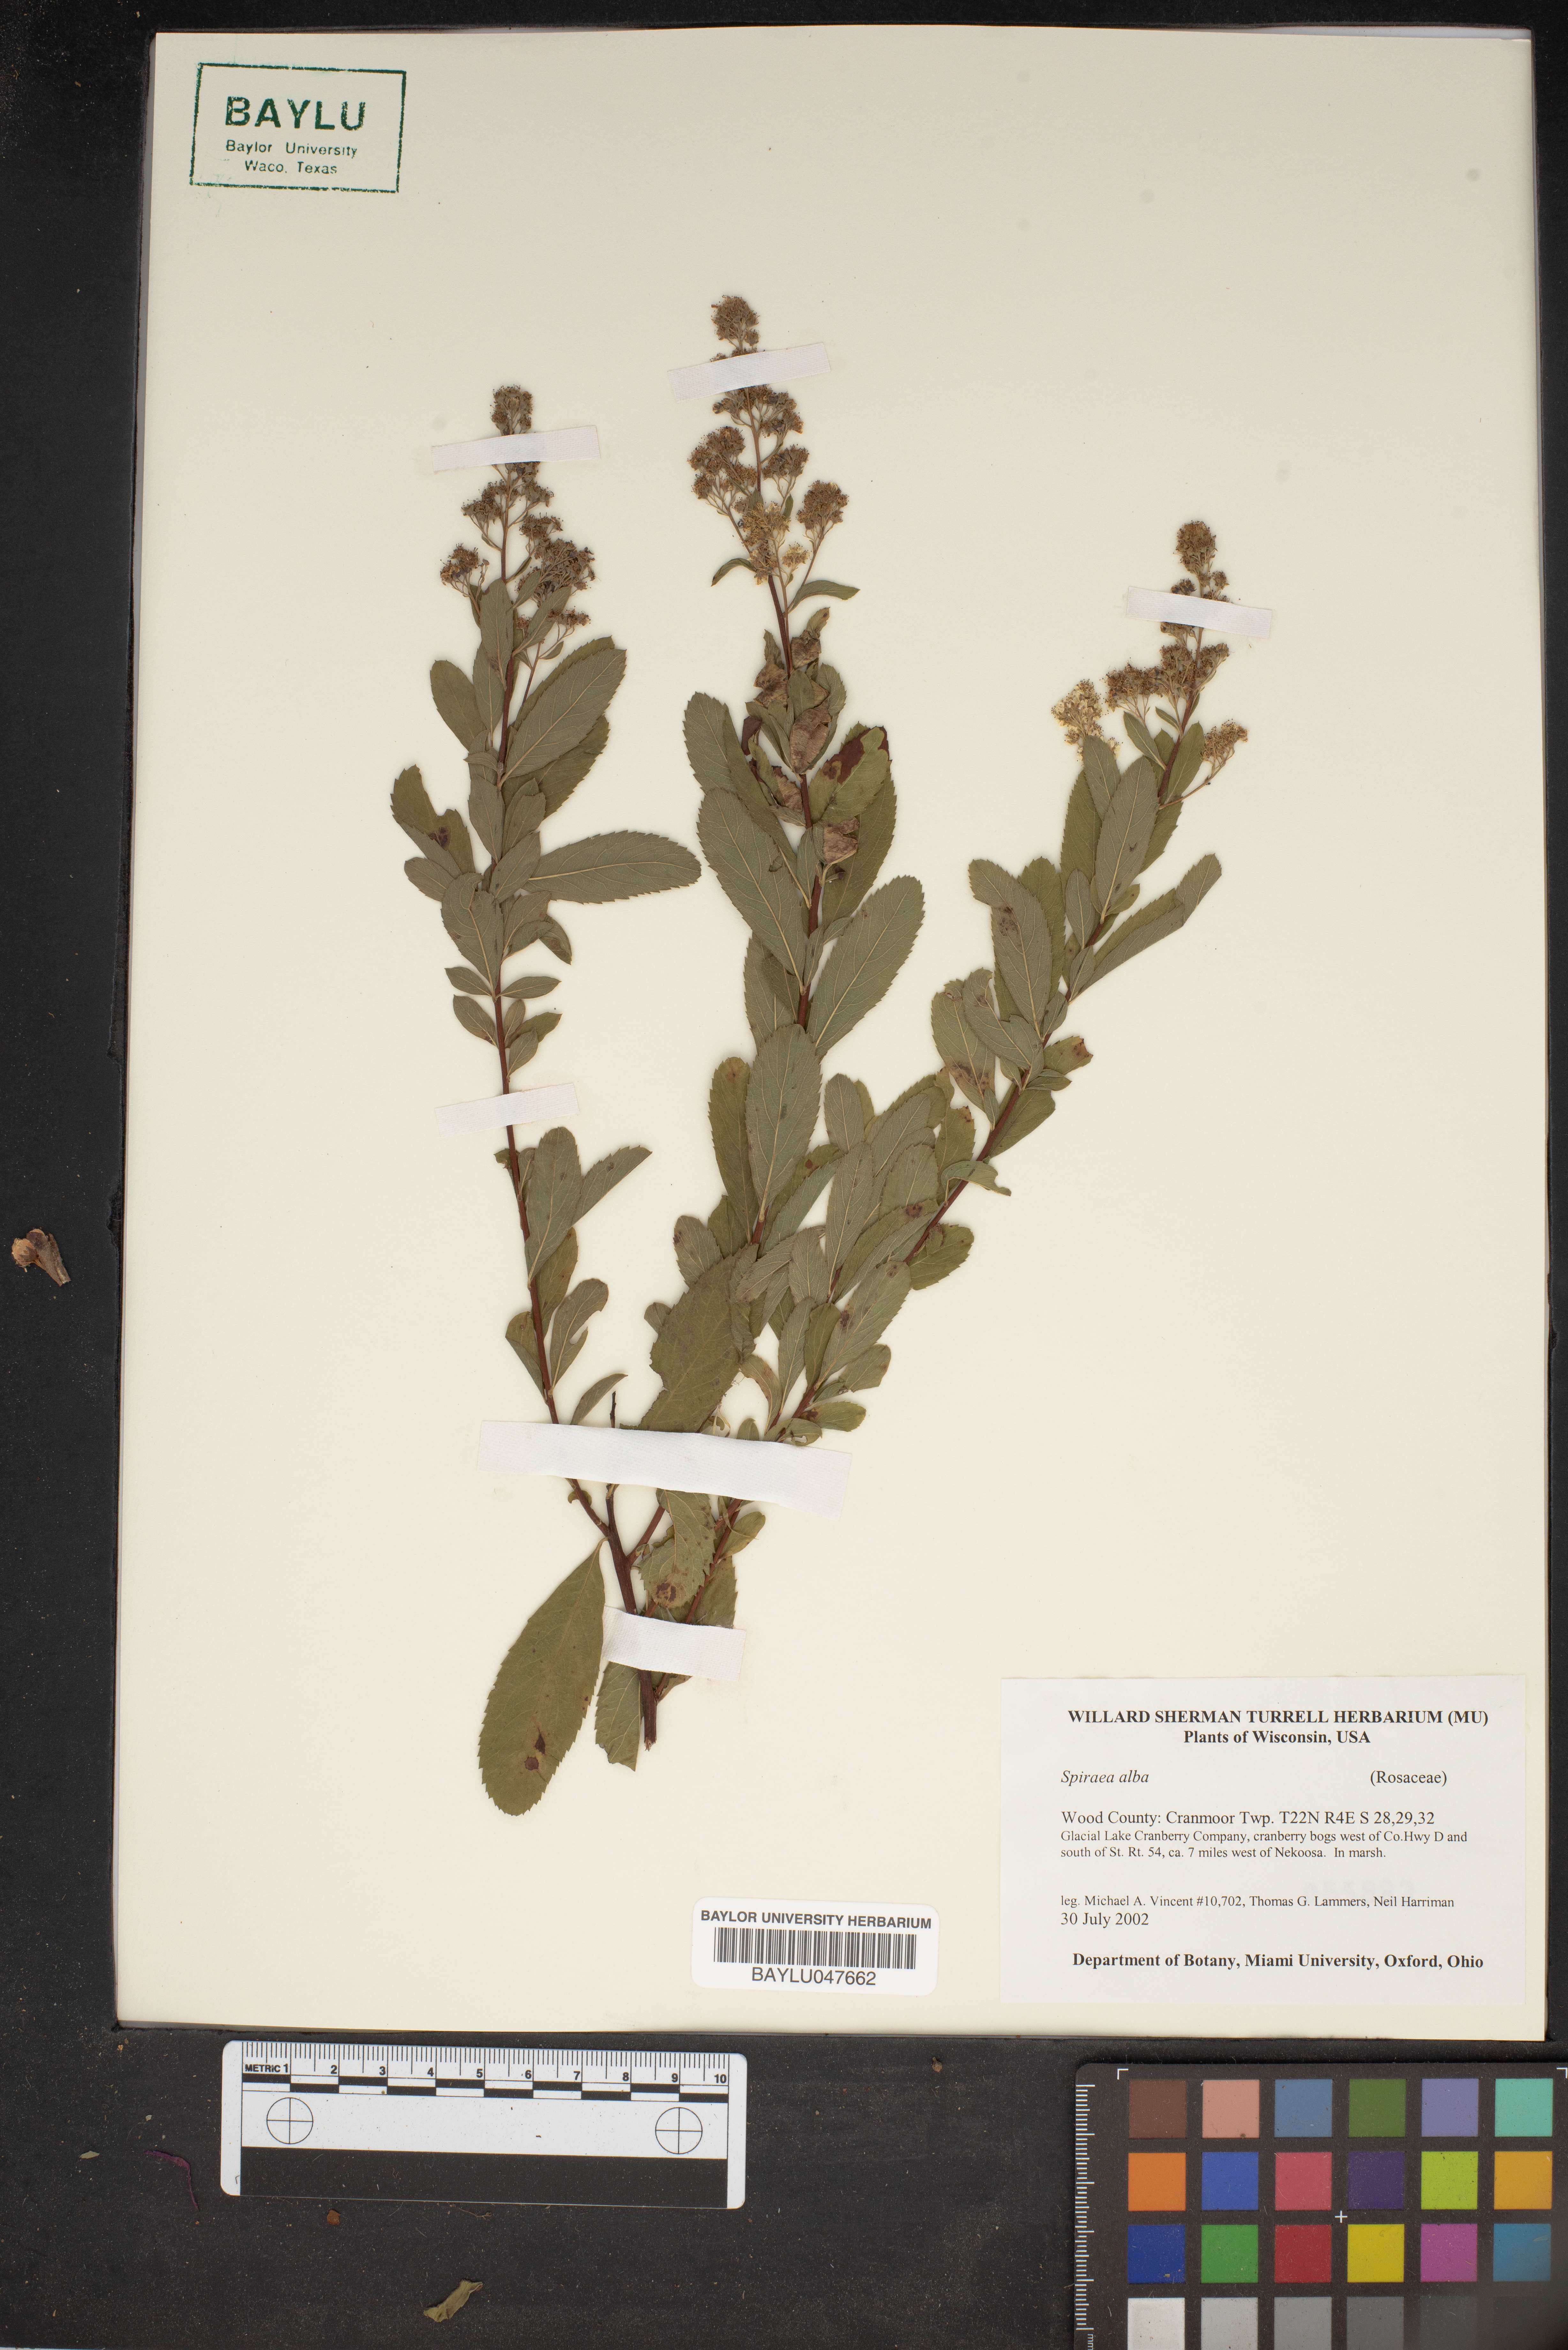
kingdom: Plantae
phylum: Tracheophyta
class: Magnoliopsida
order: Rosales
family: Rosaceae
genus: Spiraea
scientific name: Spiraea alba
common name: Pale bridewort
